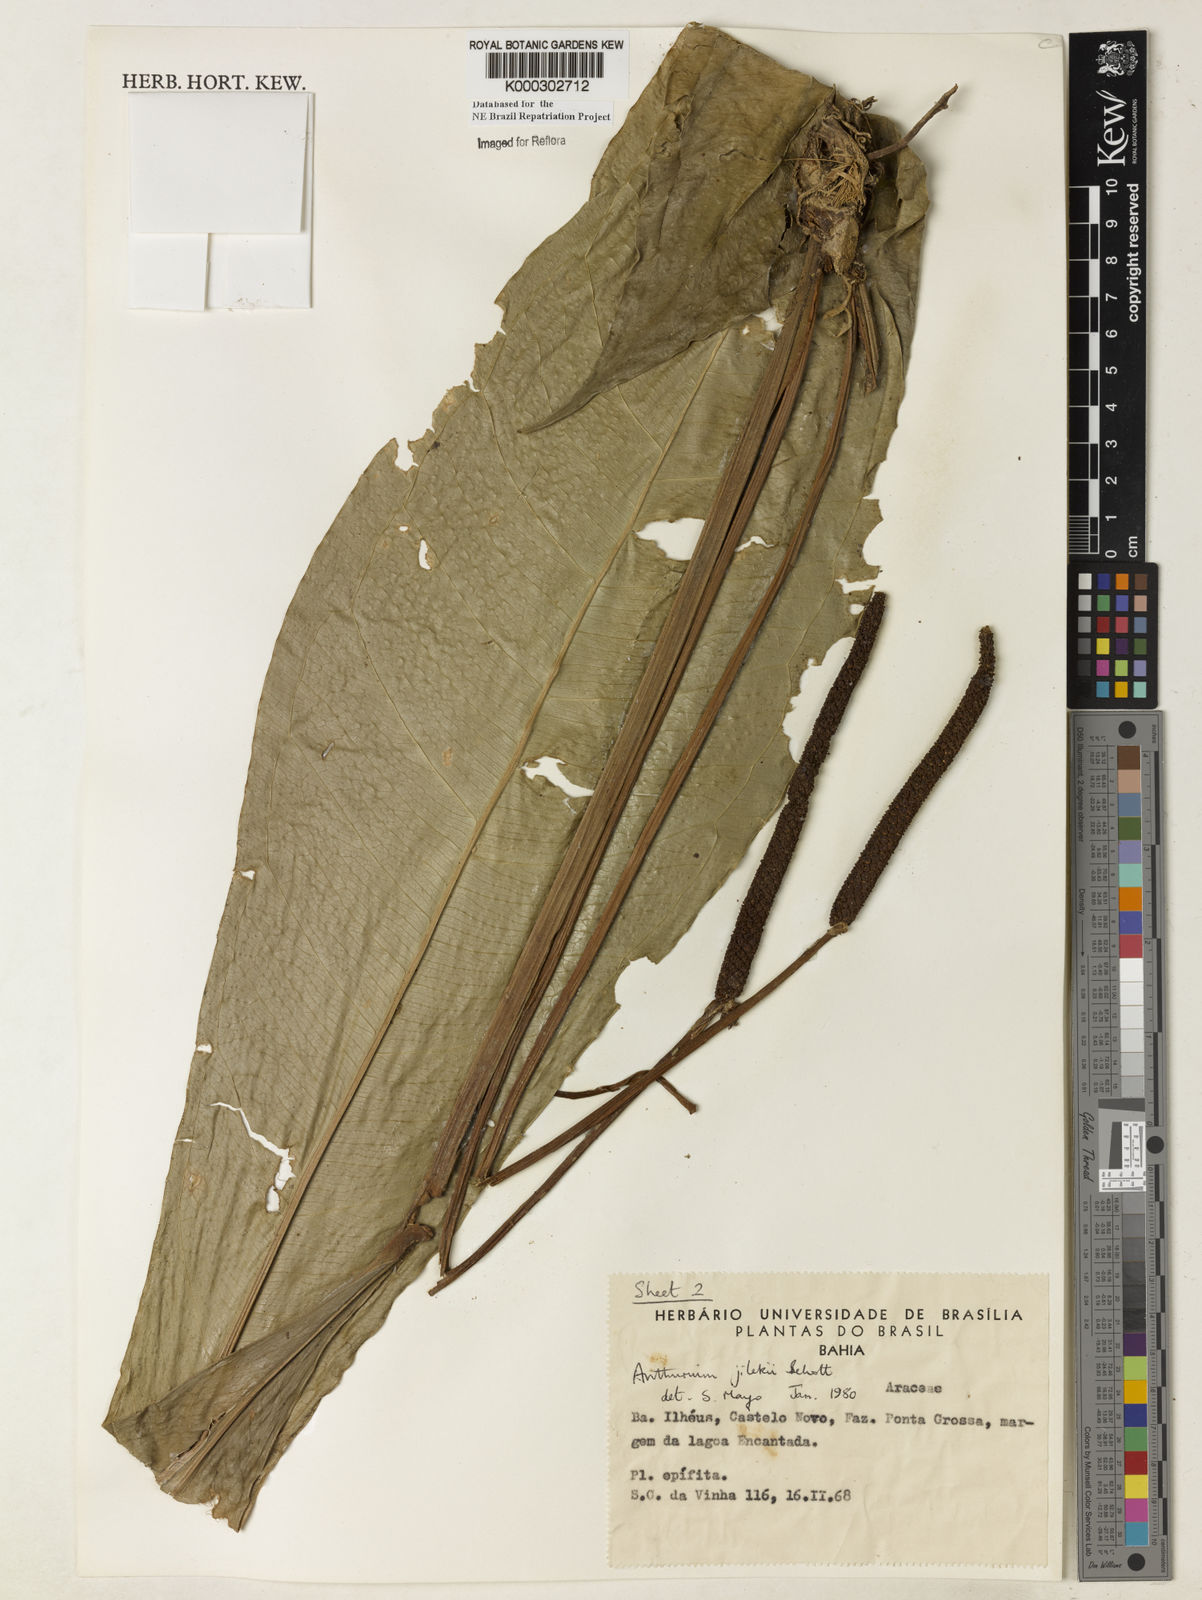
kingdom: Plantae
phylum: Tracheophyta
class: Liliopsida
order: Alismatales
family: Araceae
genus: Anthurium
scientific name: Anthurium jilekii
